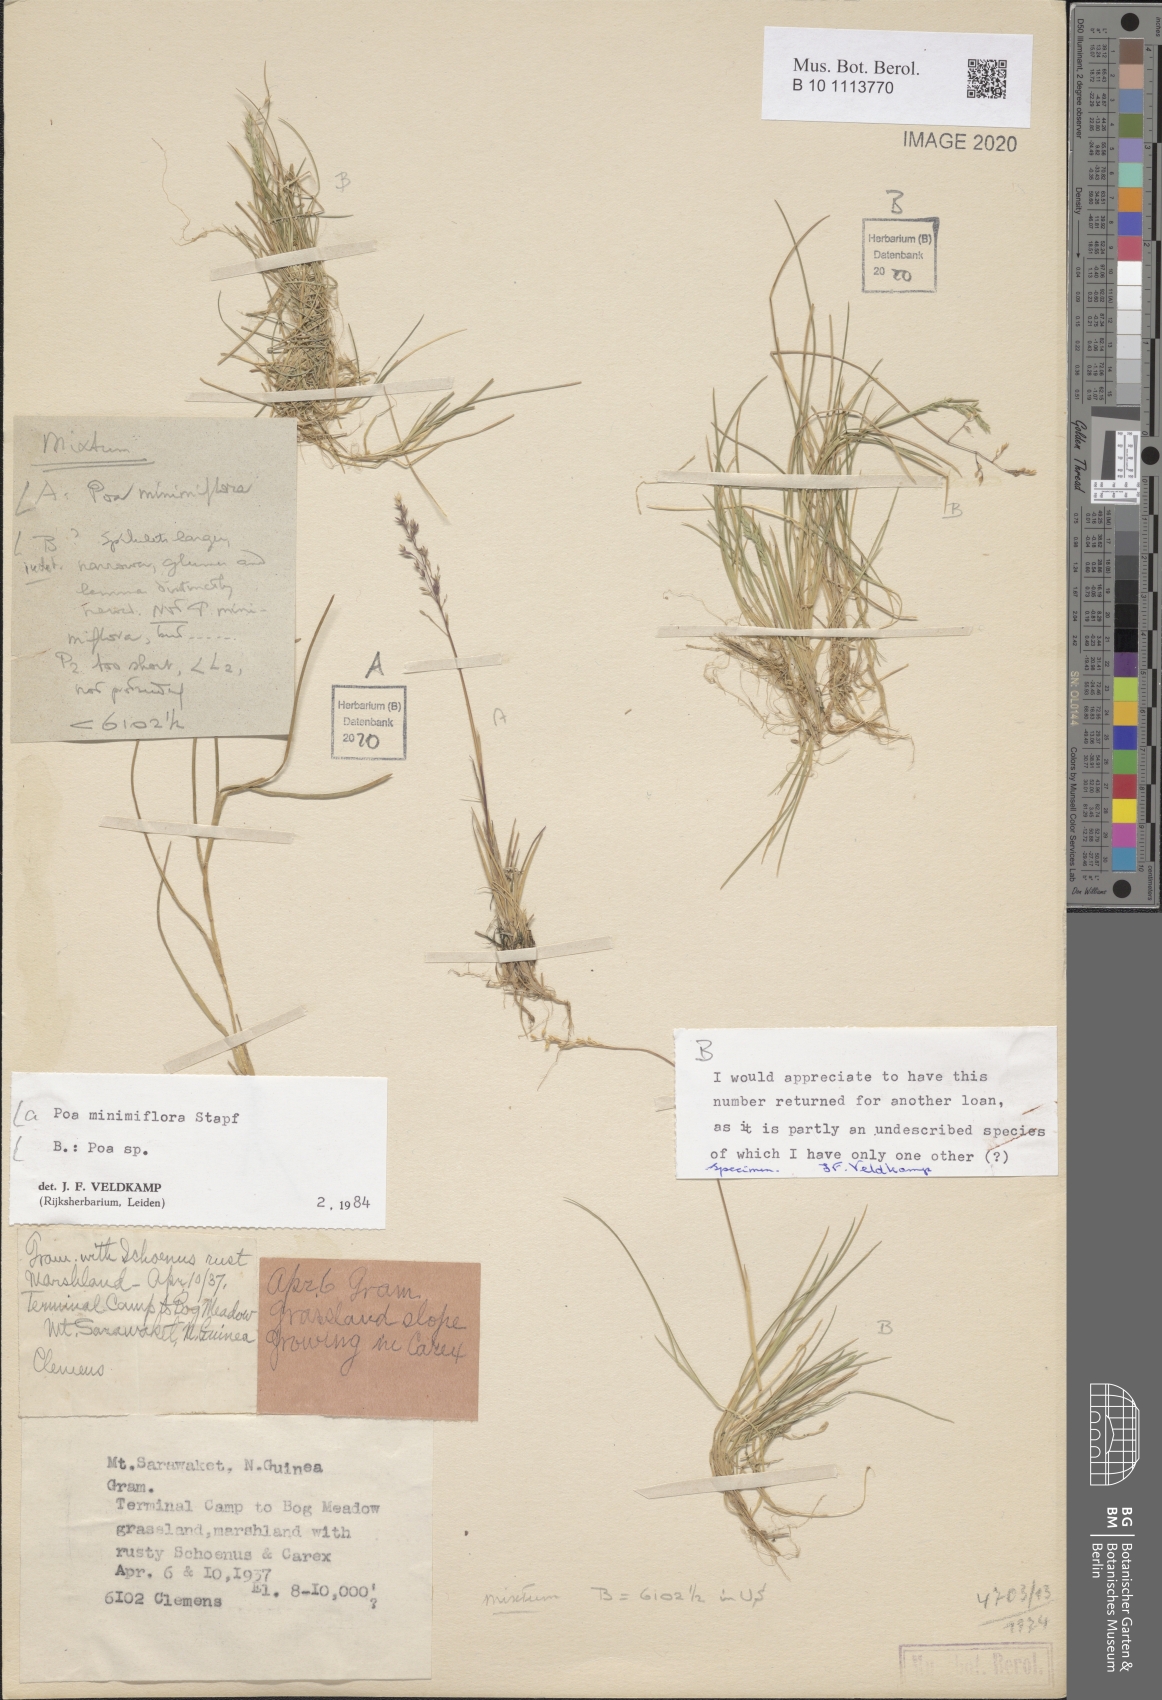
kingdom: Plantae
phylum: Tracheophyta
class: Liliopsida
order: Poales
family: Poaceae
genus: Poa
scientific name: Poa
